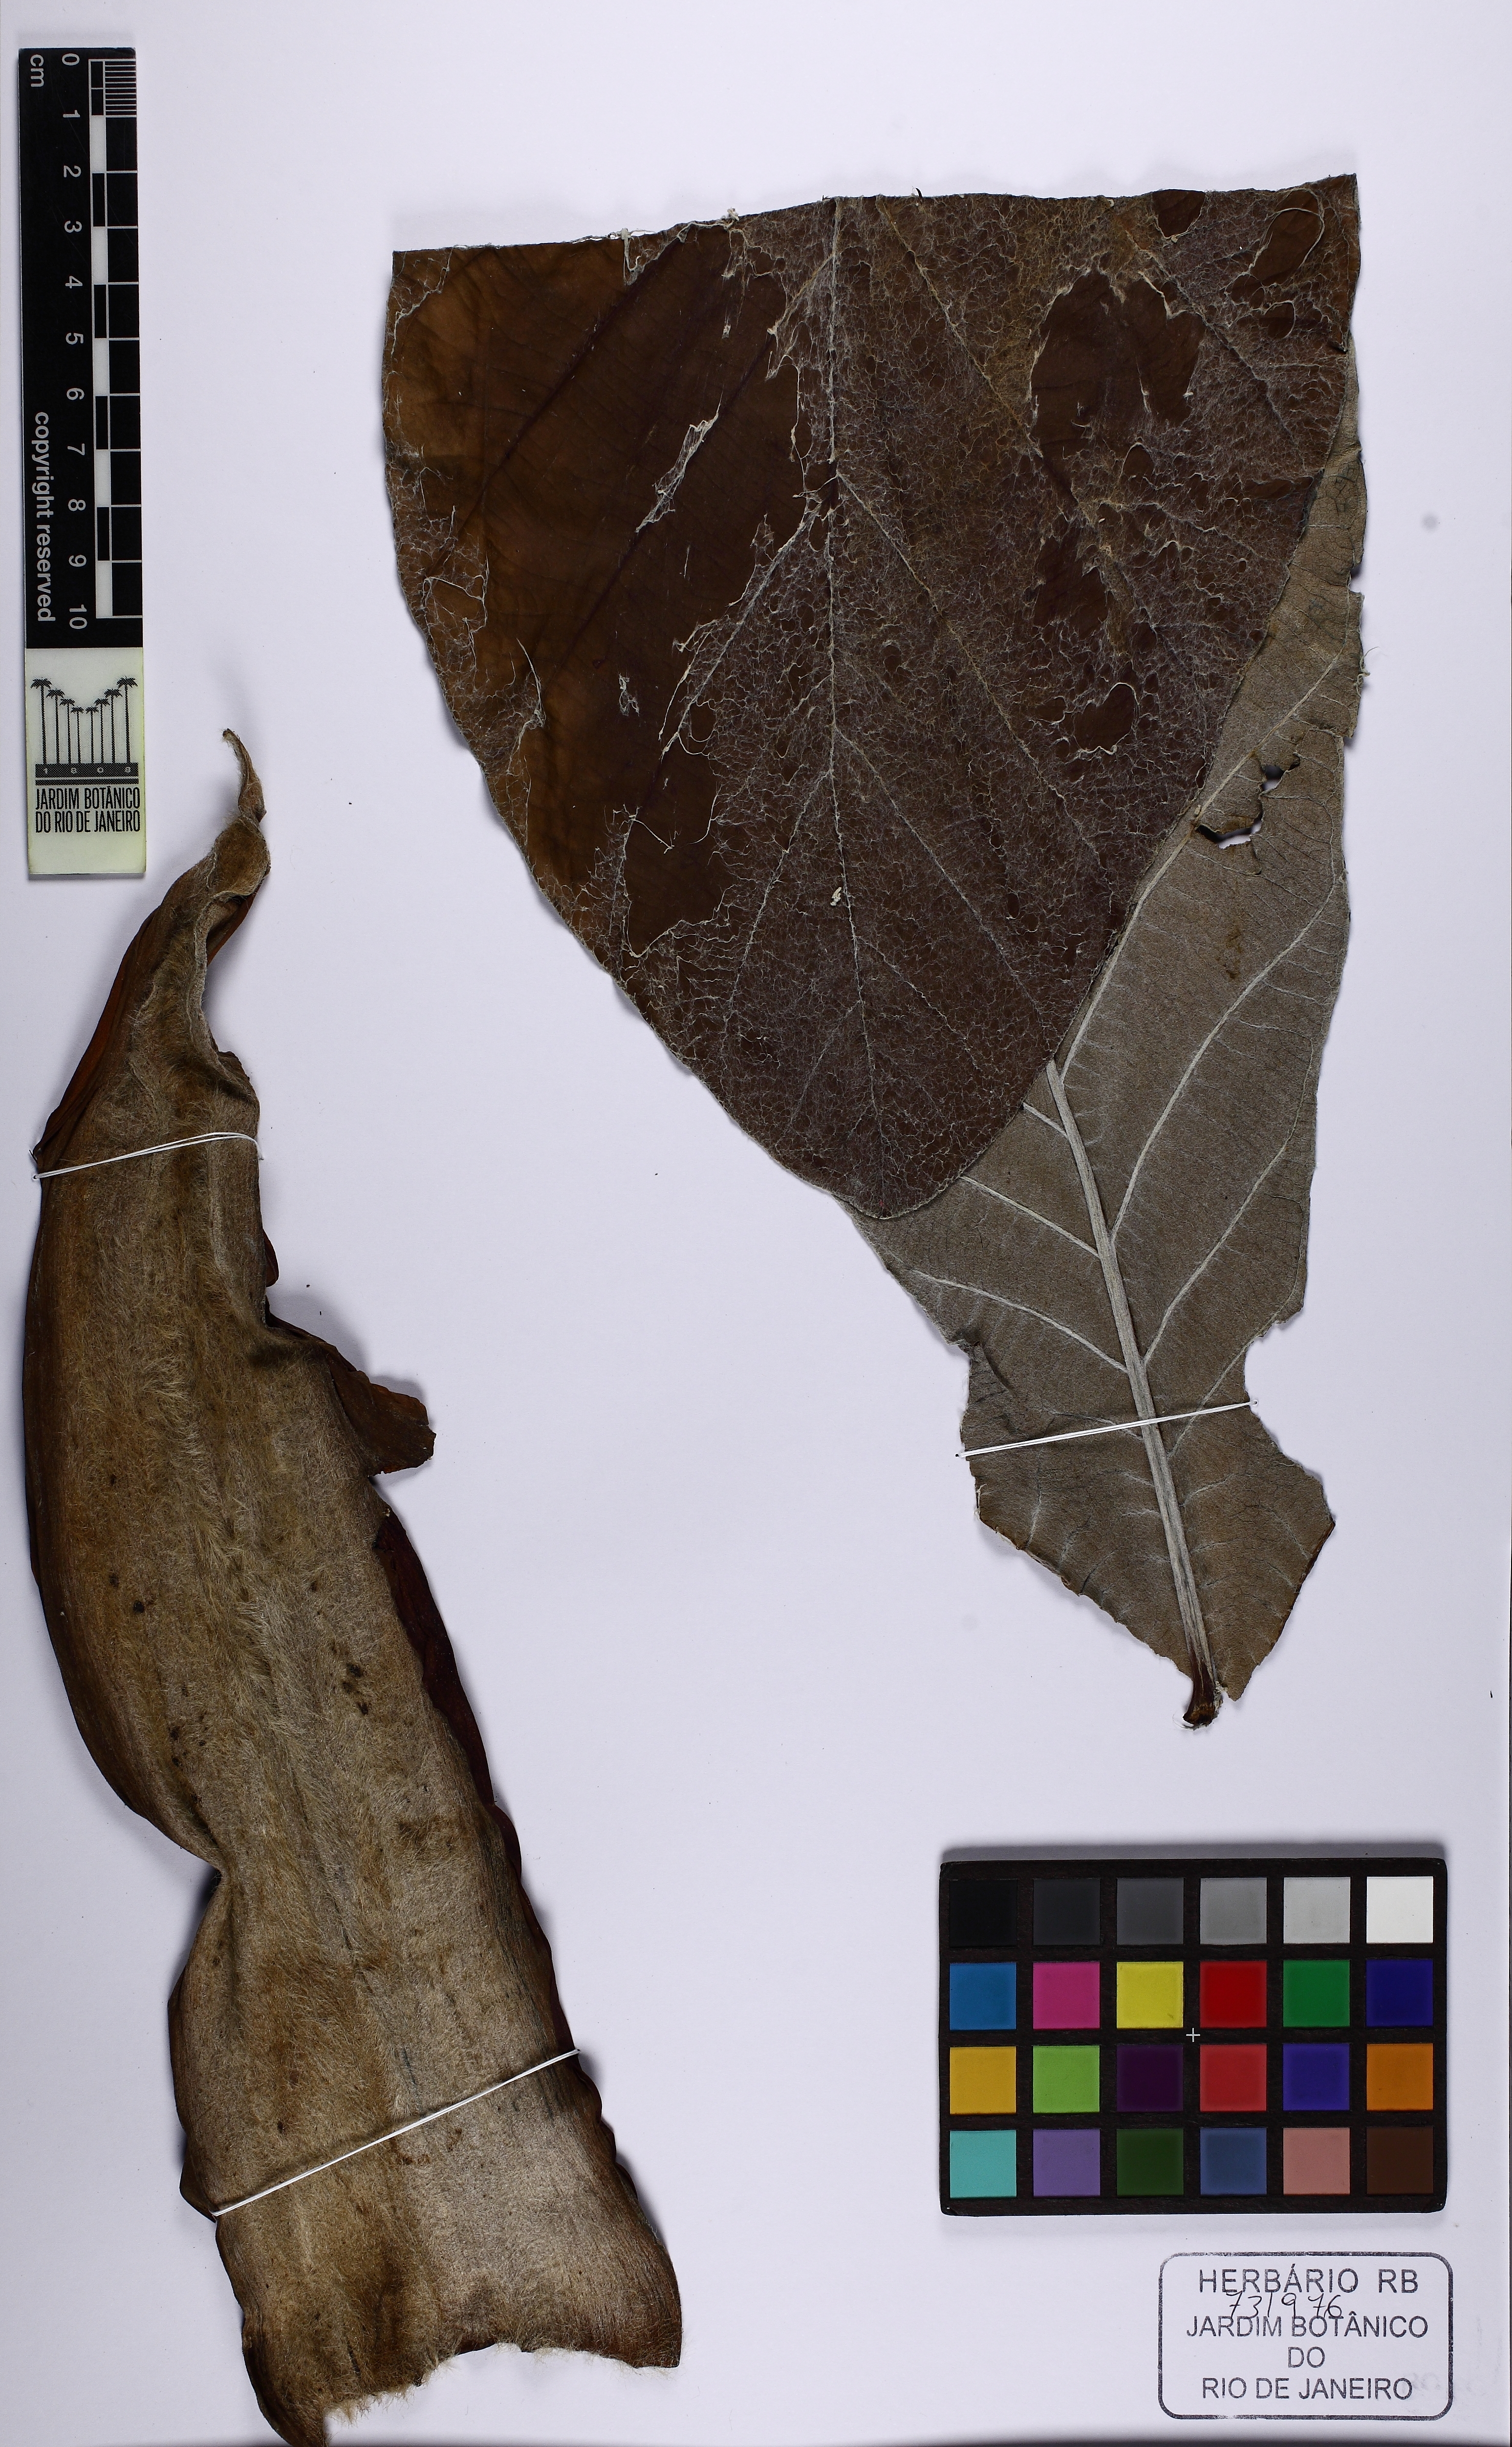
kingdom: Plantae
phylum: Tracheophyta
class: Magnoliopsida
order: Rosales
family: Urticaceae
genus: Cecropia
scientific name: Cecropia
